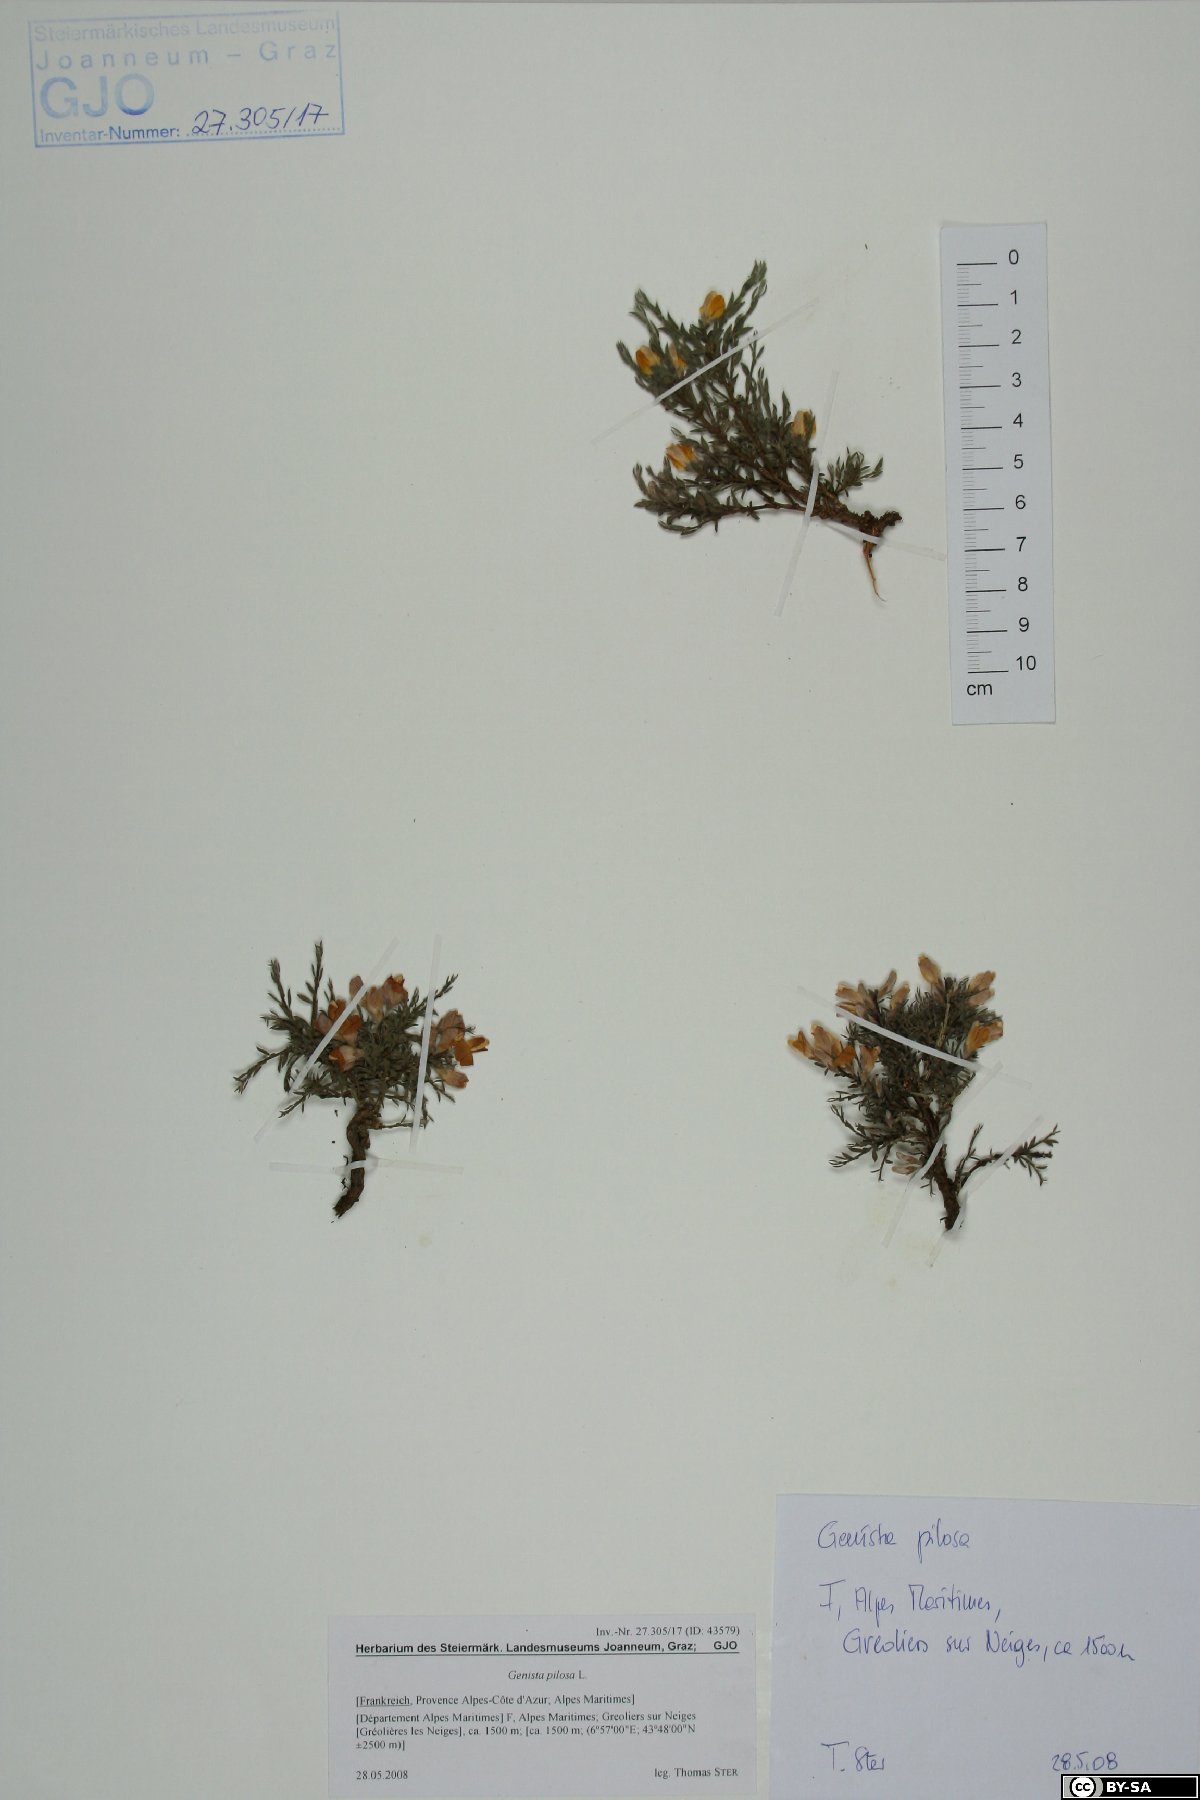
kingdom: Plantae
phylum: Tracheophyta
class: Magnoliopsida
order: Fabales
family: Fabaceae
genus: Genista
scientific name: Genista pilosa
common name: Hairy greenweed
